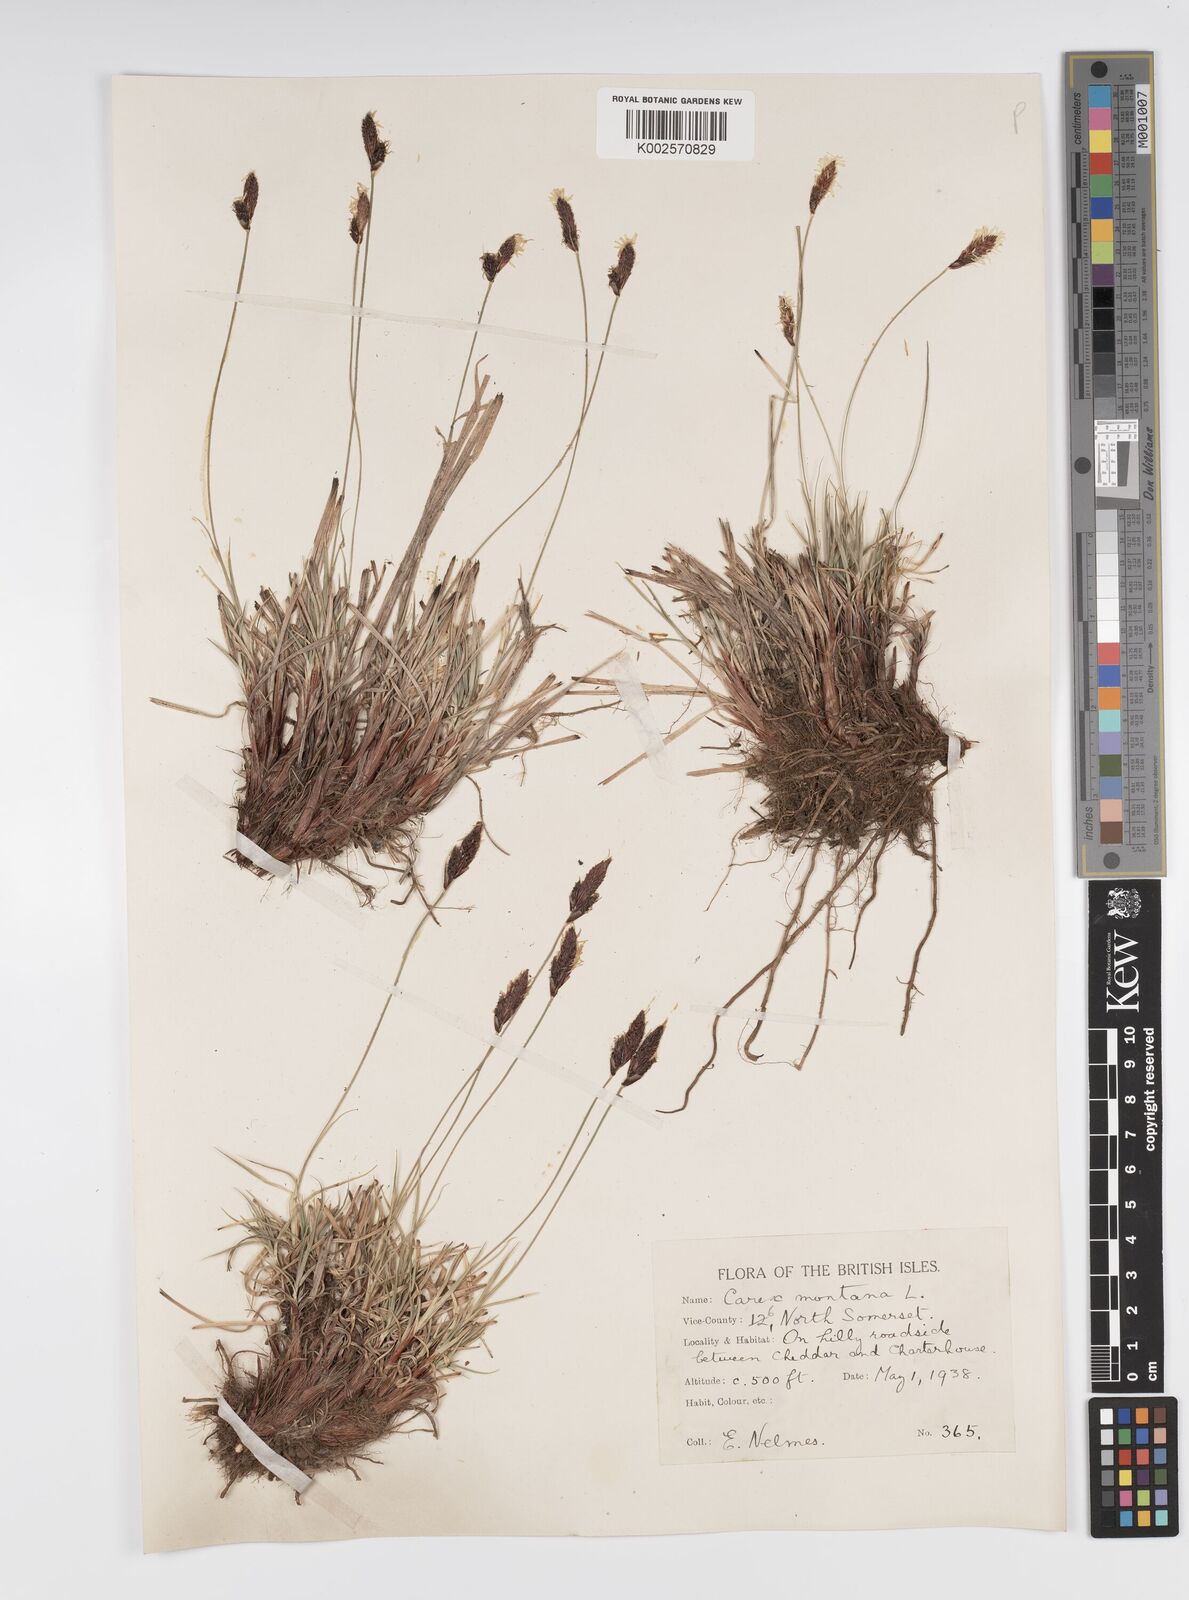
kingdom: Plantae
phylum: Tracheophyta
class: Liliopsida
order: Poales
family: Cyperaceae
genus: Carex
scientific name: Carex montana
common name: Soft-leaved sedge
